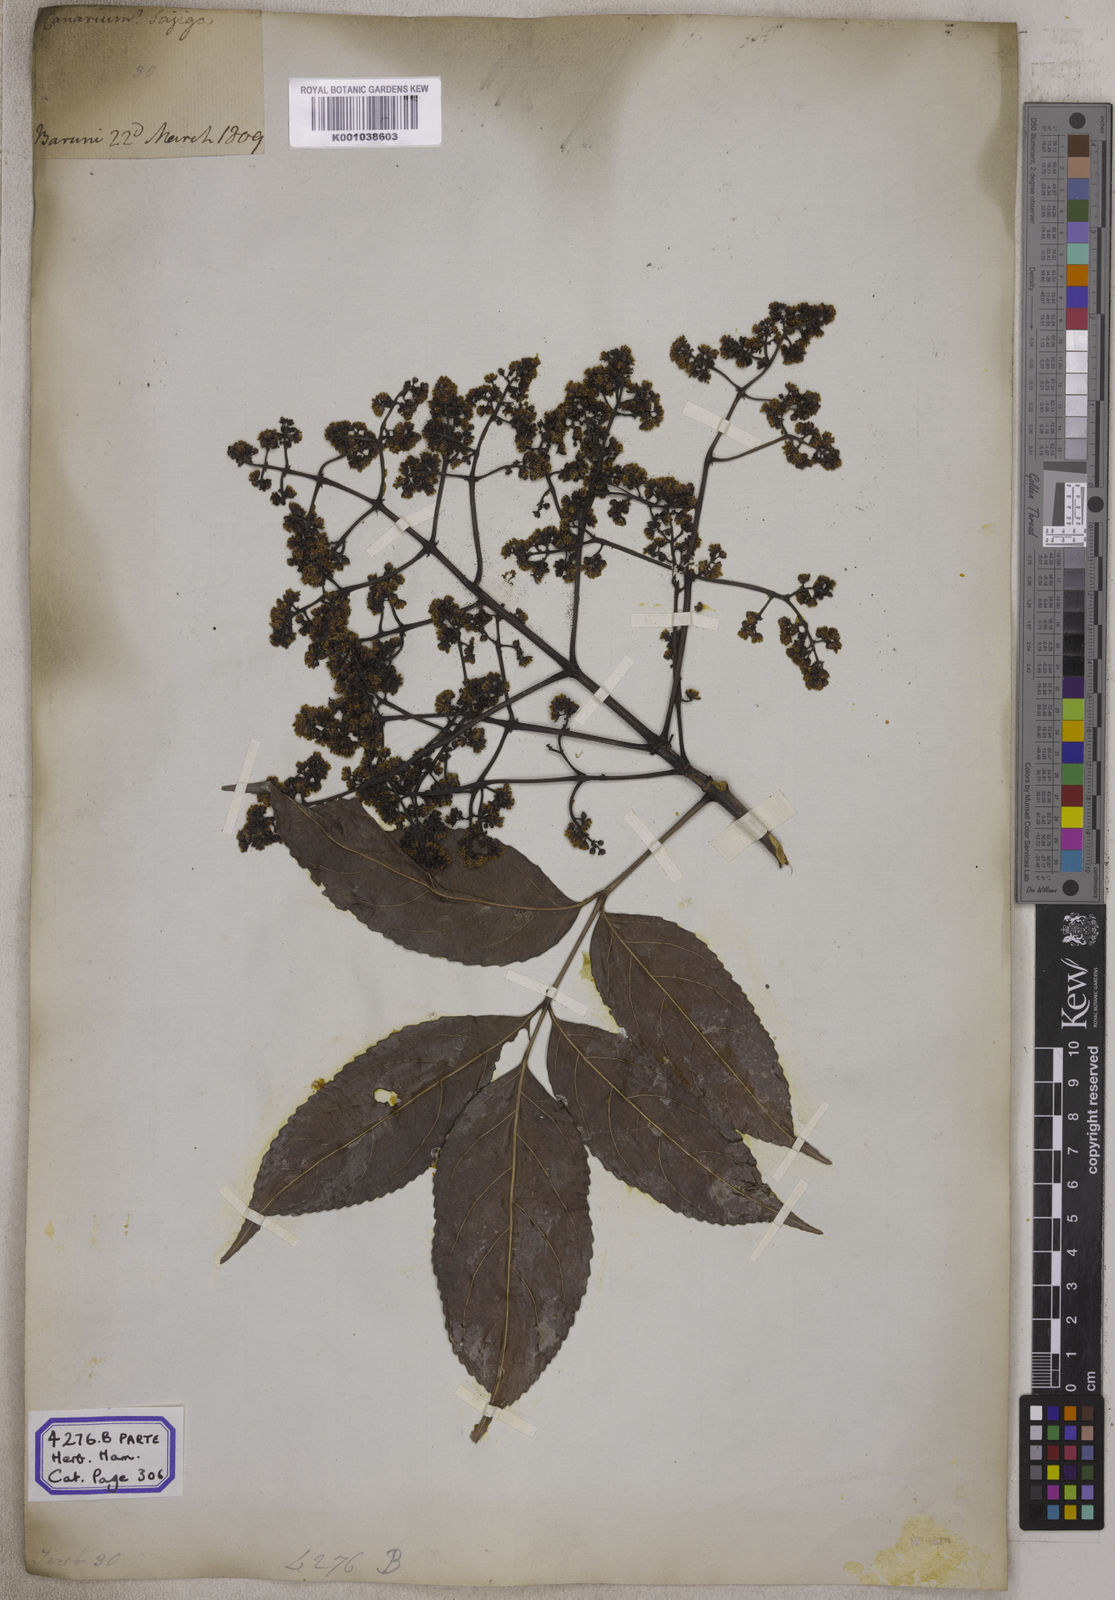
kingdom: Plantae
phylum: Tracheophyta
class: Magnoliopsida
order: Crossosomatales
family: Staphyleaceae
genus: Dalrympelea
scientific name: Dalrympelea pomifera
